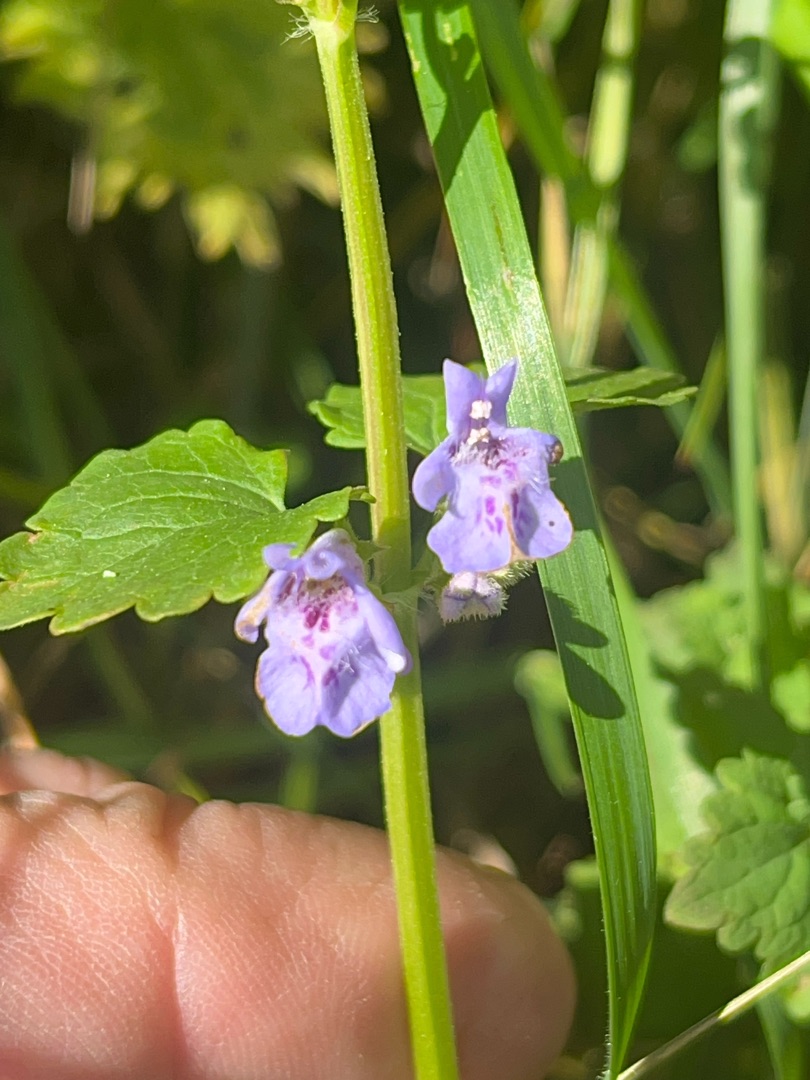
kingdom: Plantae
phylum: Tracheophyta
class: Magnoliopsida
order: Lamiales
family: Lamiaceae
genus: Glechoma
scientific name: Glechoma hederacea
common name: Korsknap
